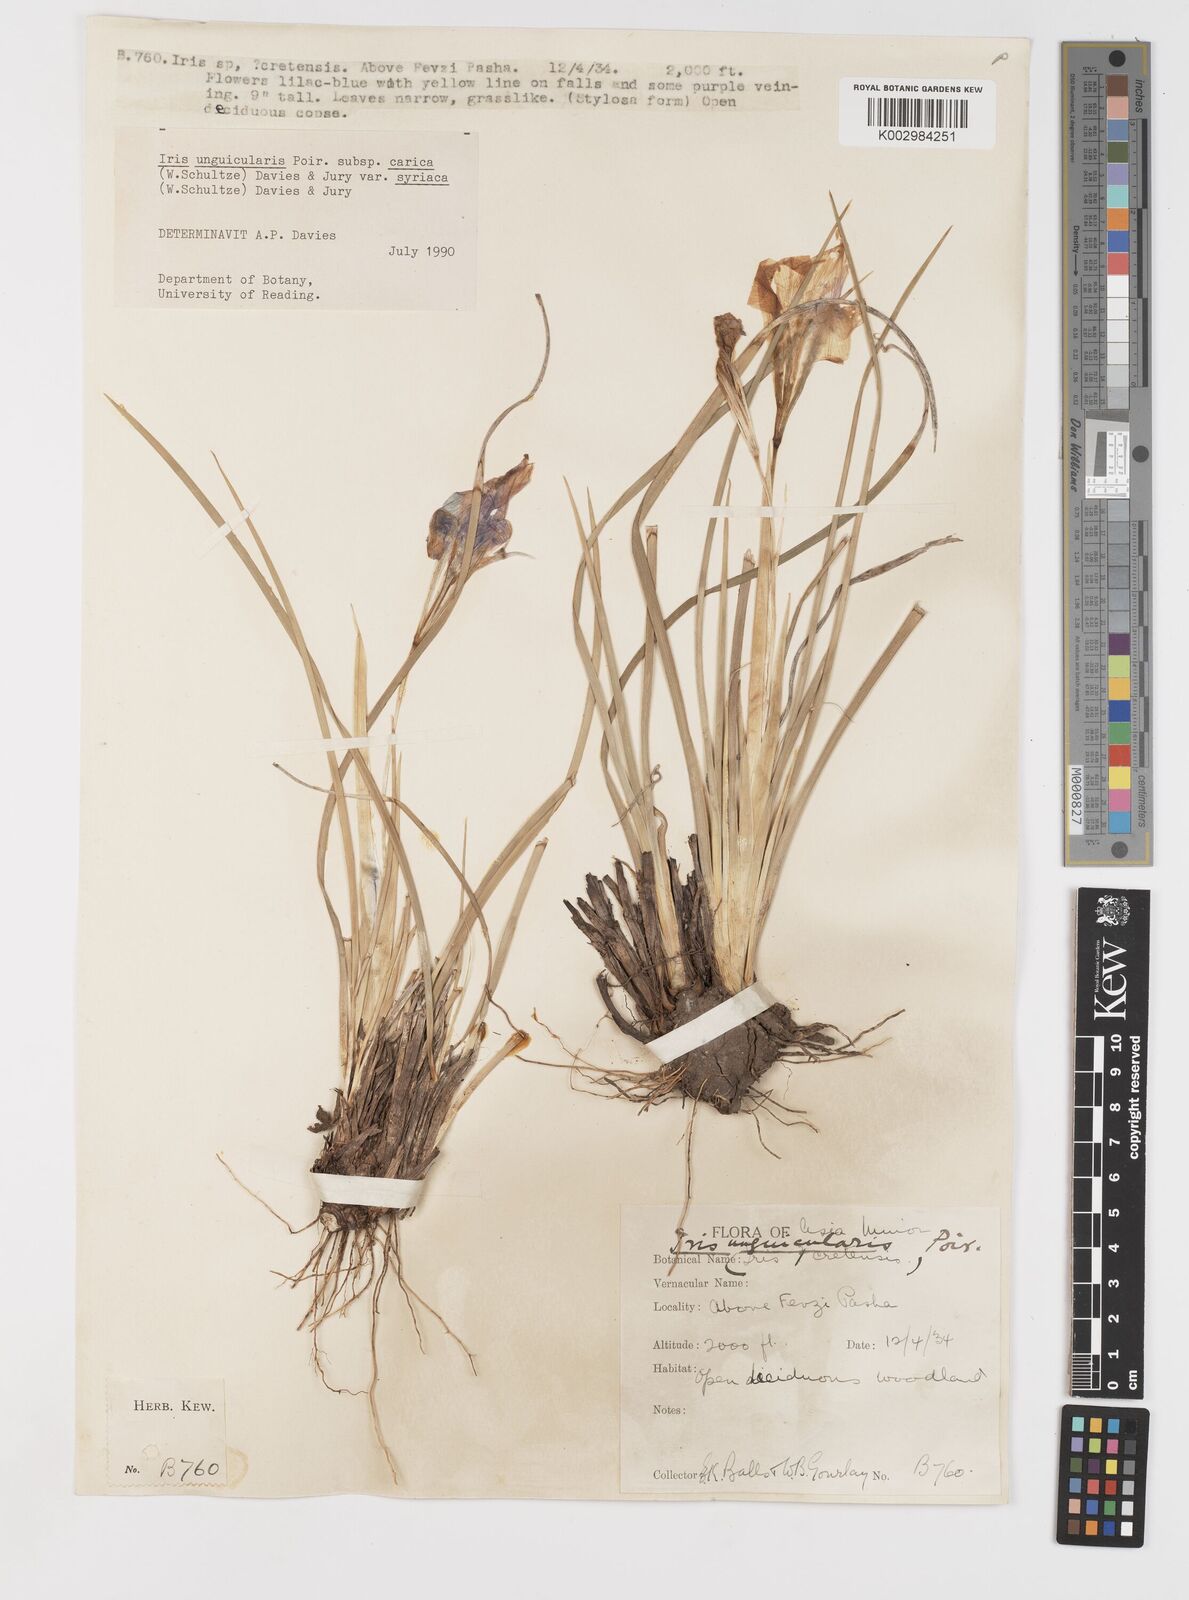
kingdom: Plantae
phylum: Tracheophyta
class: Liliopsida
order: Asparagales
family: Iridaceae
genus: Iris
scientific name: Iris unguicularis
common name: Algerian iris
